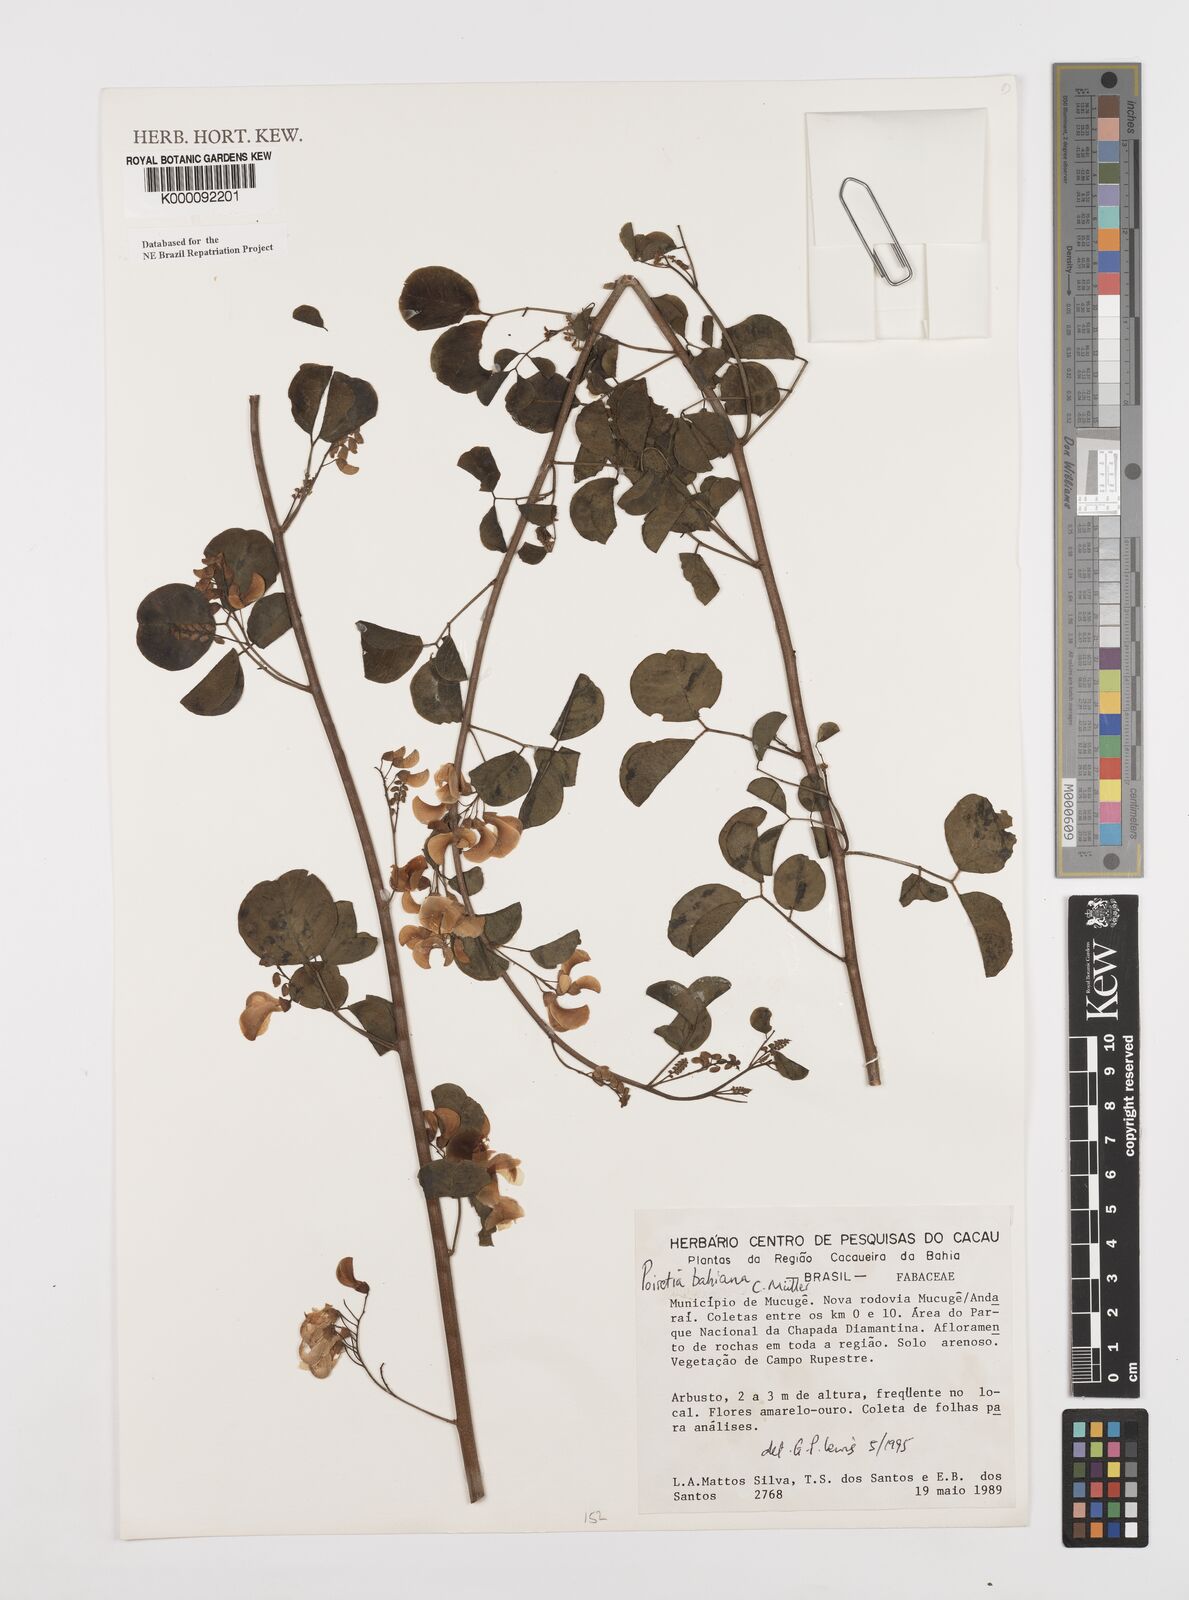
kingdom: Plantae
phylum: Tracheophyta
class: Magnoliopsida
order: Fabales
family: Fabaceae
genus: Poiretia
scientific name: Poiretia
